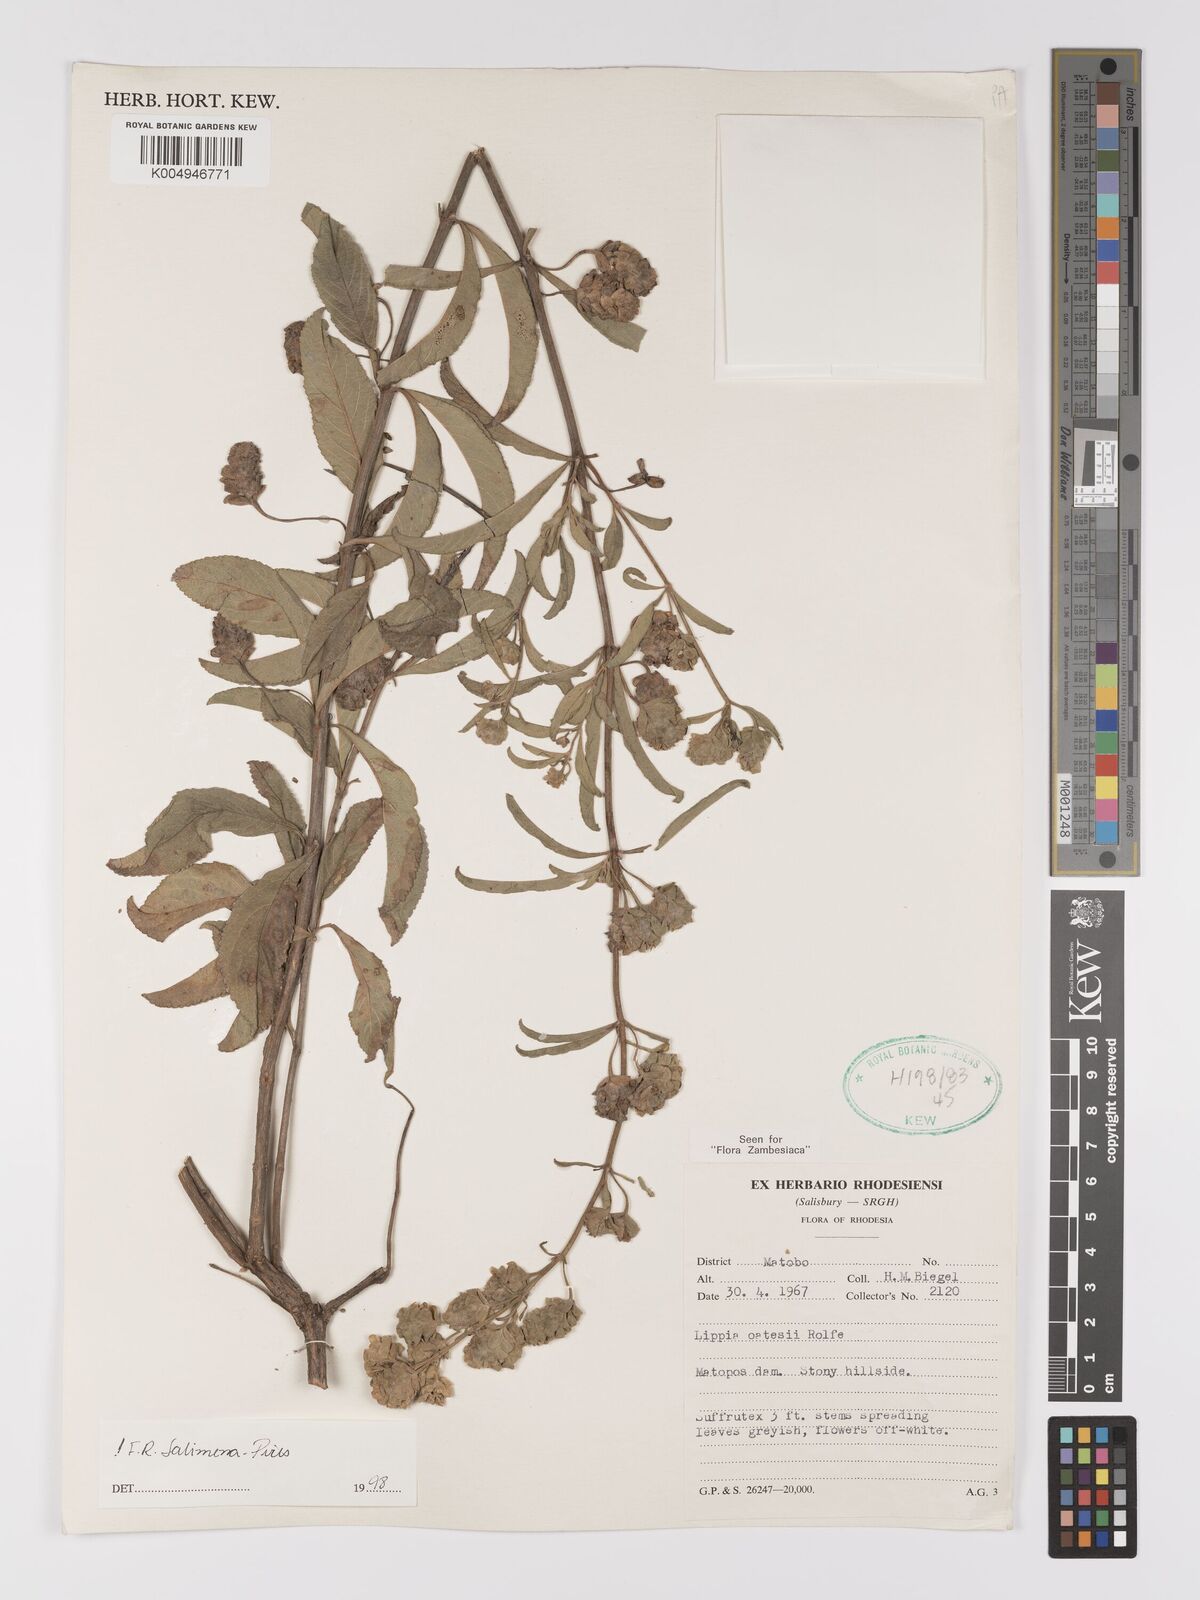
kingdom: Plantae
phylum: Tracheophyta
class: Magnoliopsida
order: Lamiales
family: Verbenaceae
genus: Lippia
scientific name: Lippia oatesii
